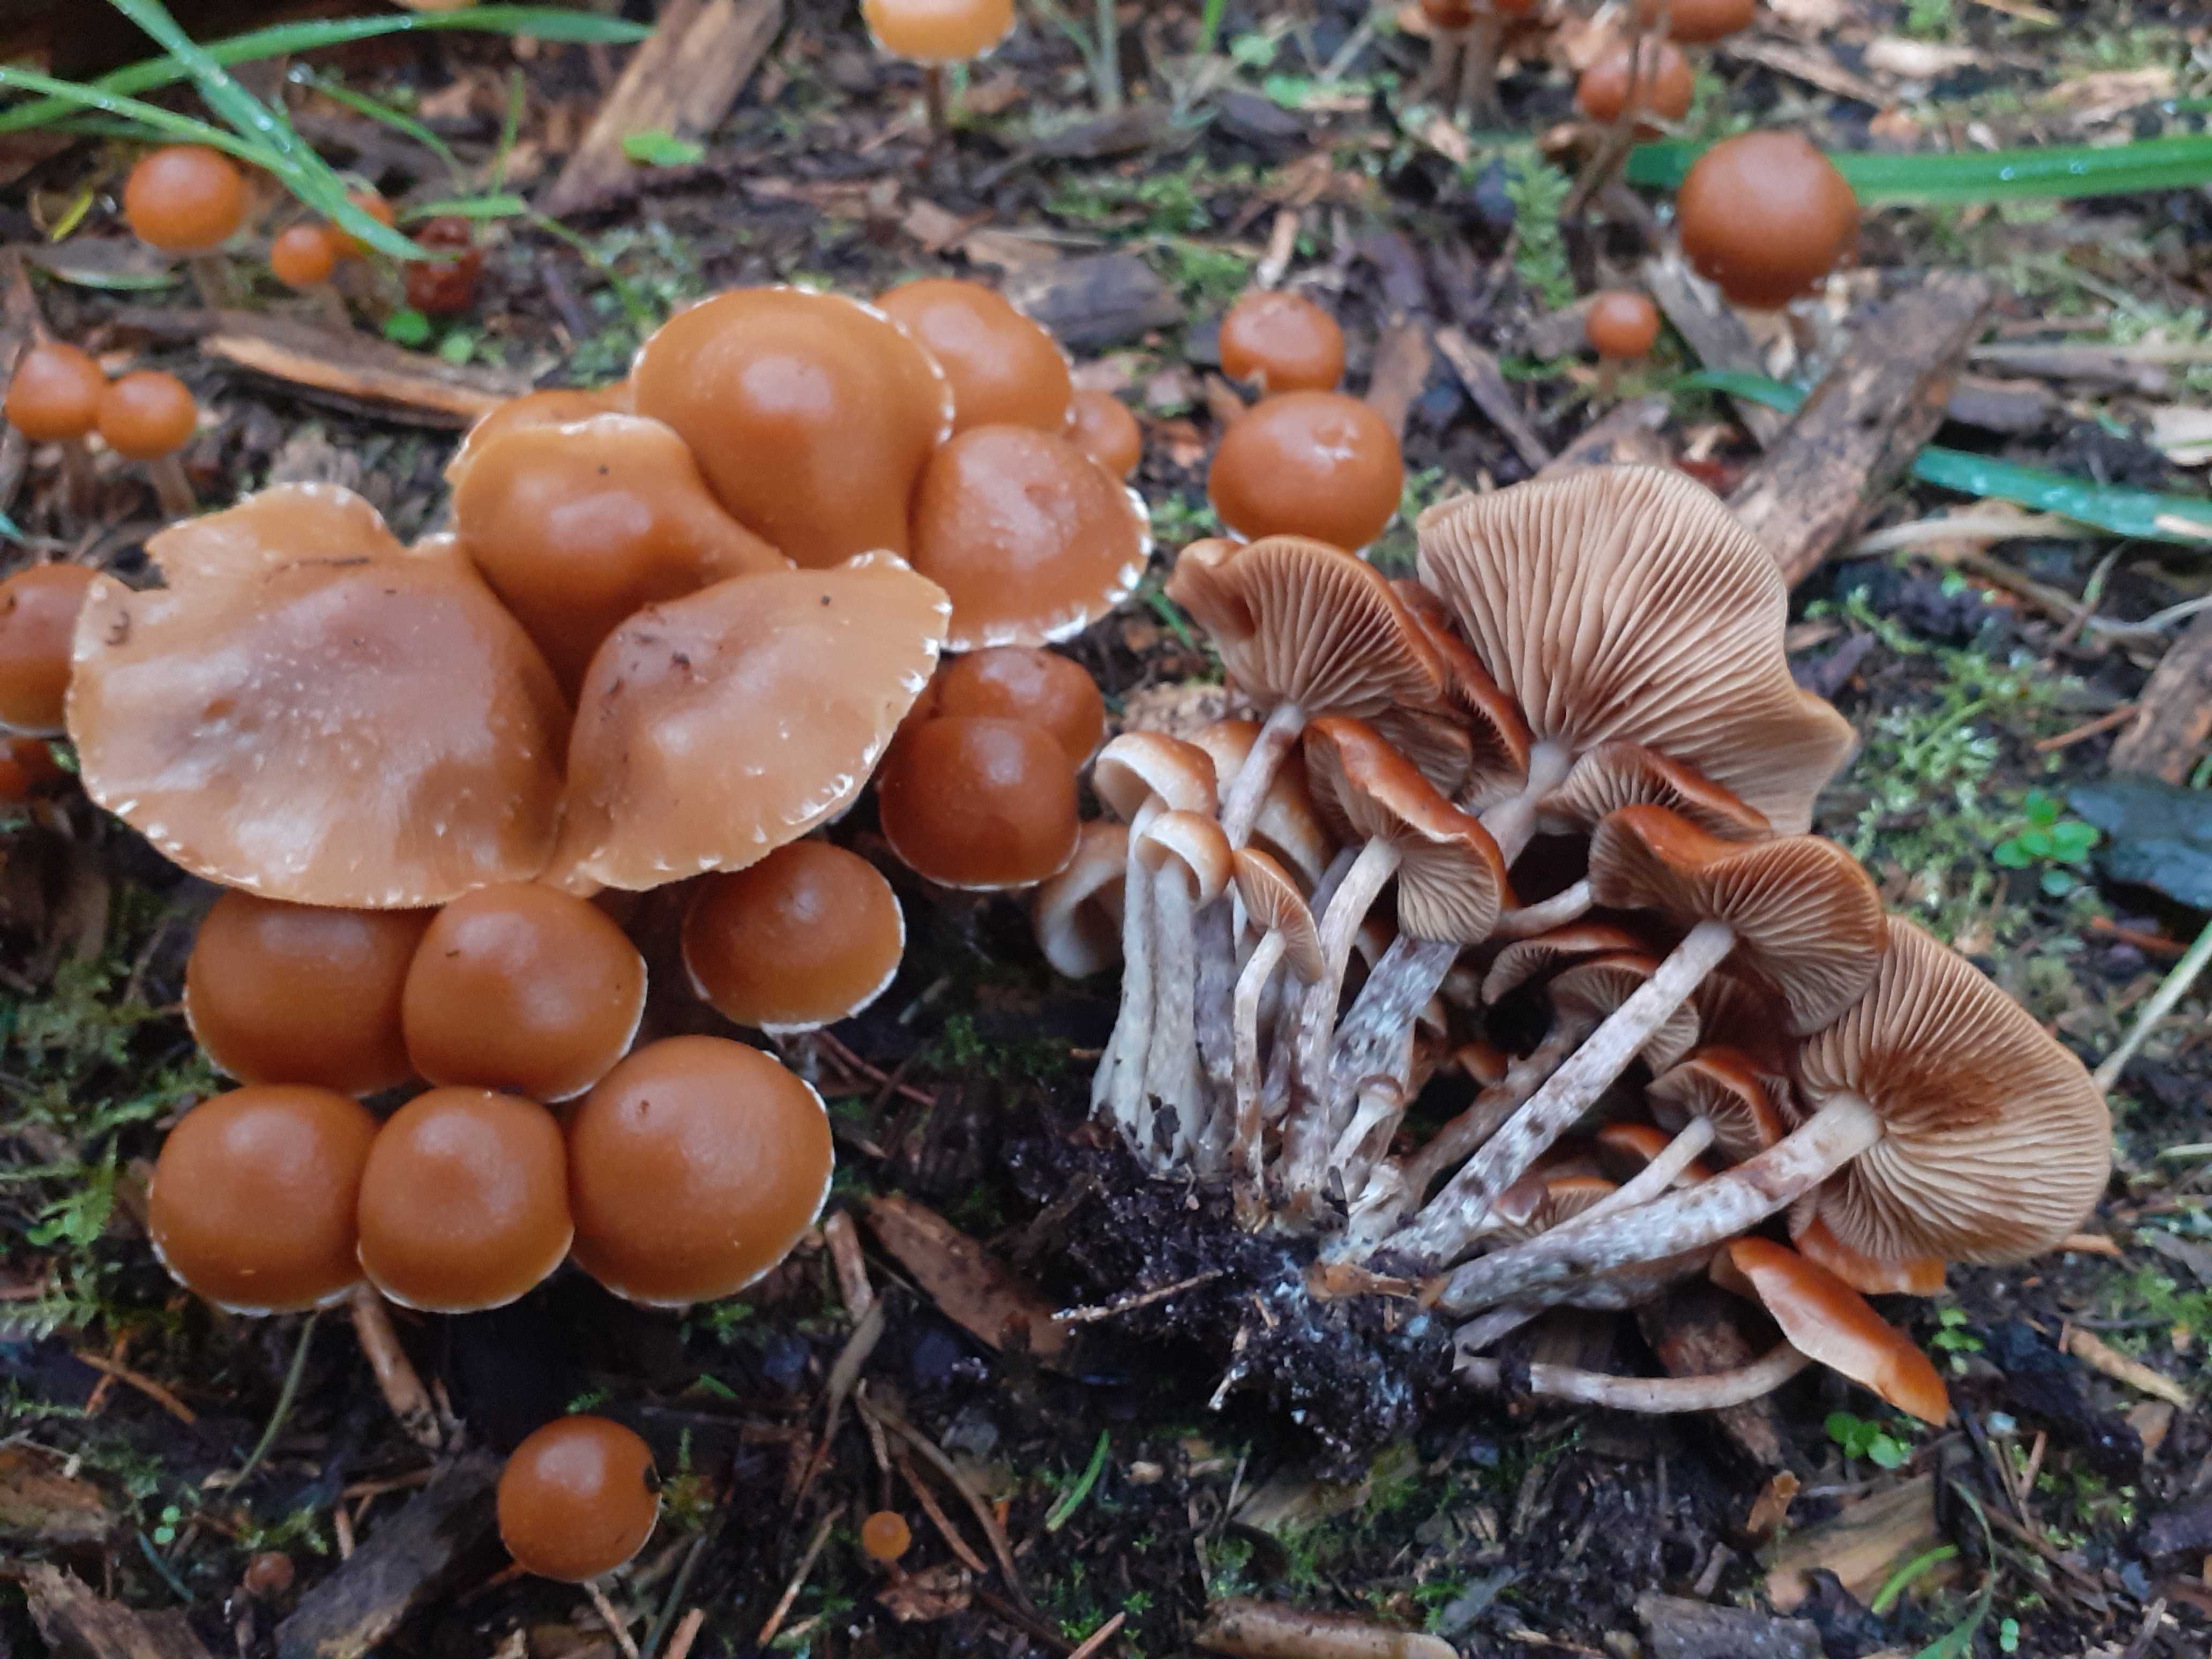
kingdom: Fungi
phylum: Basidiomycota
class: Agaricomycetes
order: Agaricales
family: Hymenogastraceae
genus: Galerina
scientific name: Galerina sideroides
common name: træflis-hjelmhat
